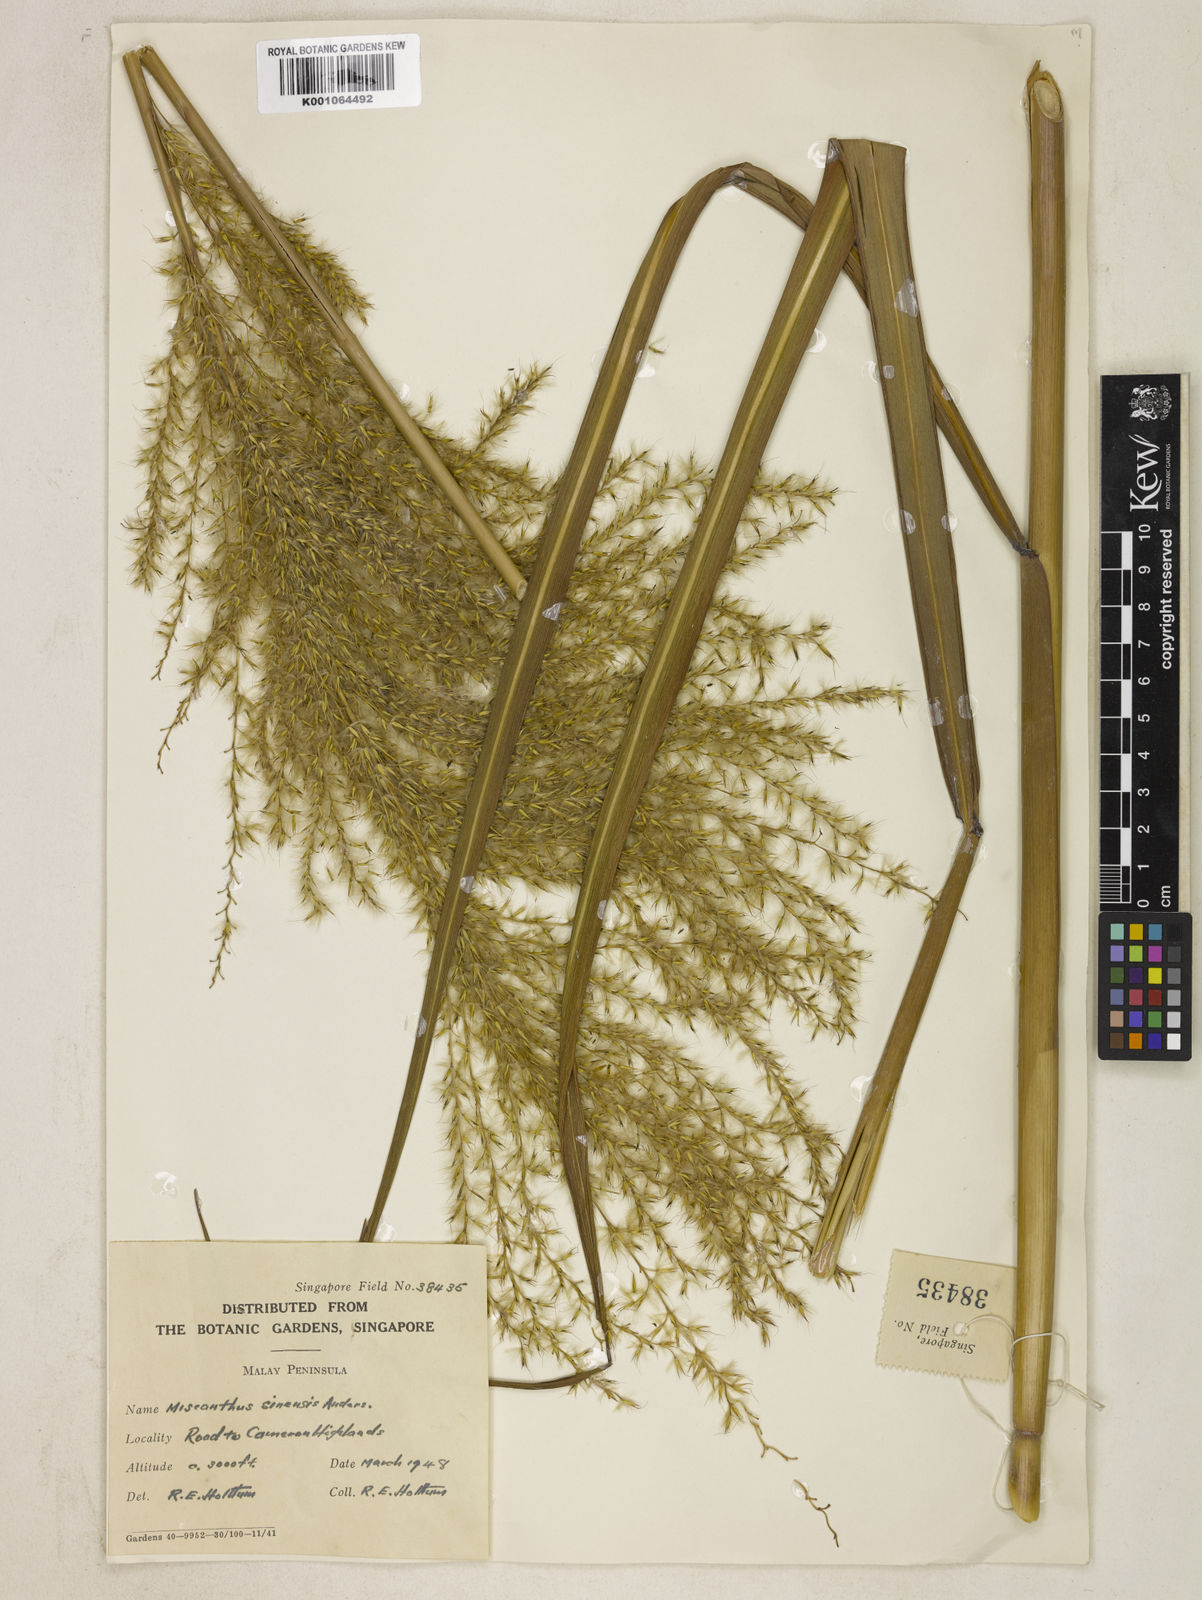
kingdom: Plantae
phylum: Tracheophyta
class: Liliopsida
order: Poales
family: Poaceae
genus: Miscanthus
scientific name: Miscanthus sinensis
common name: Chinese silvergrass
